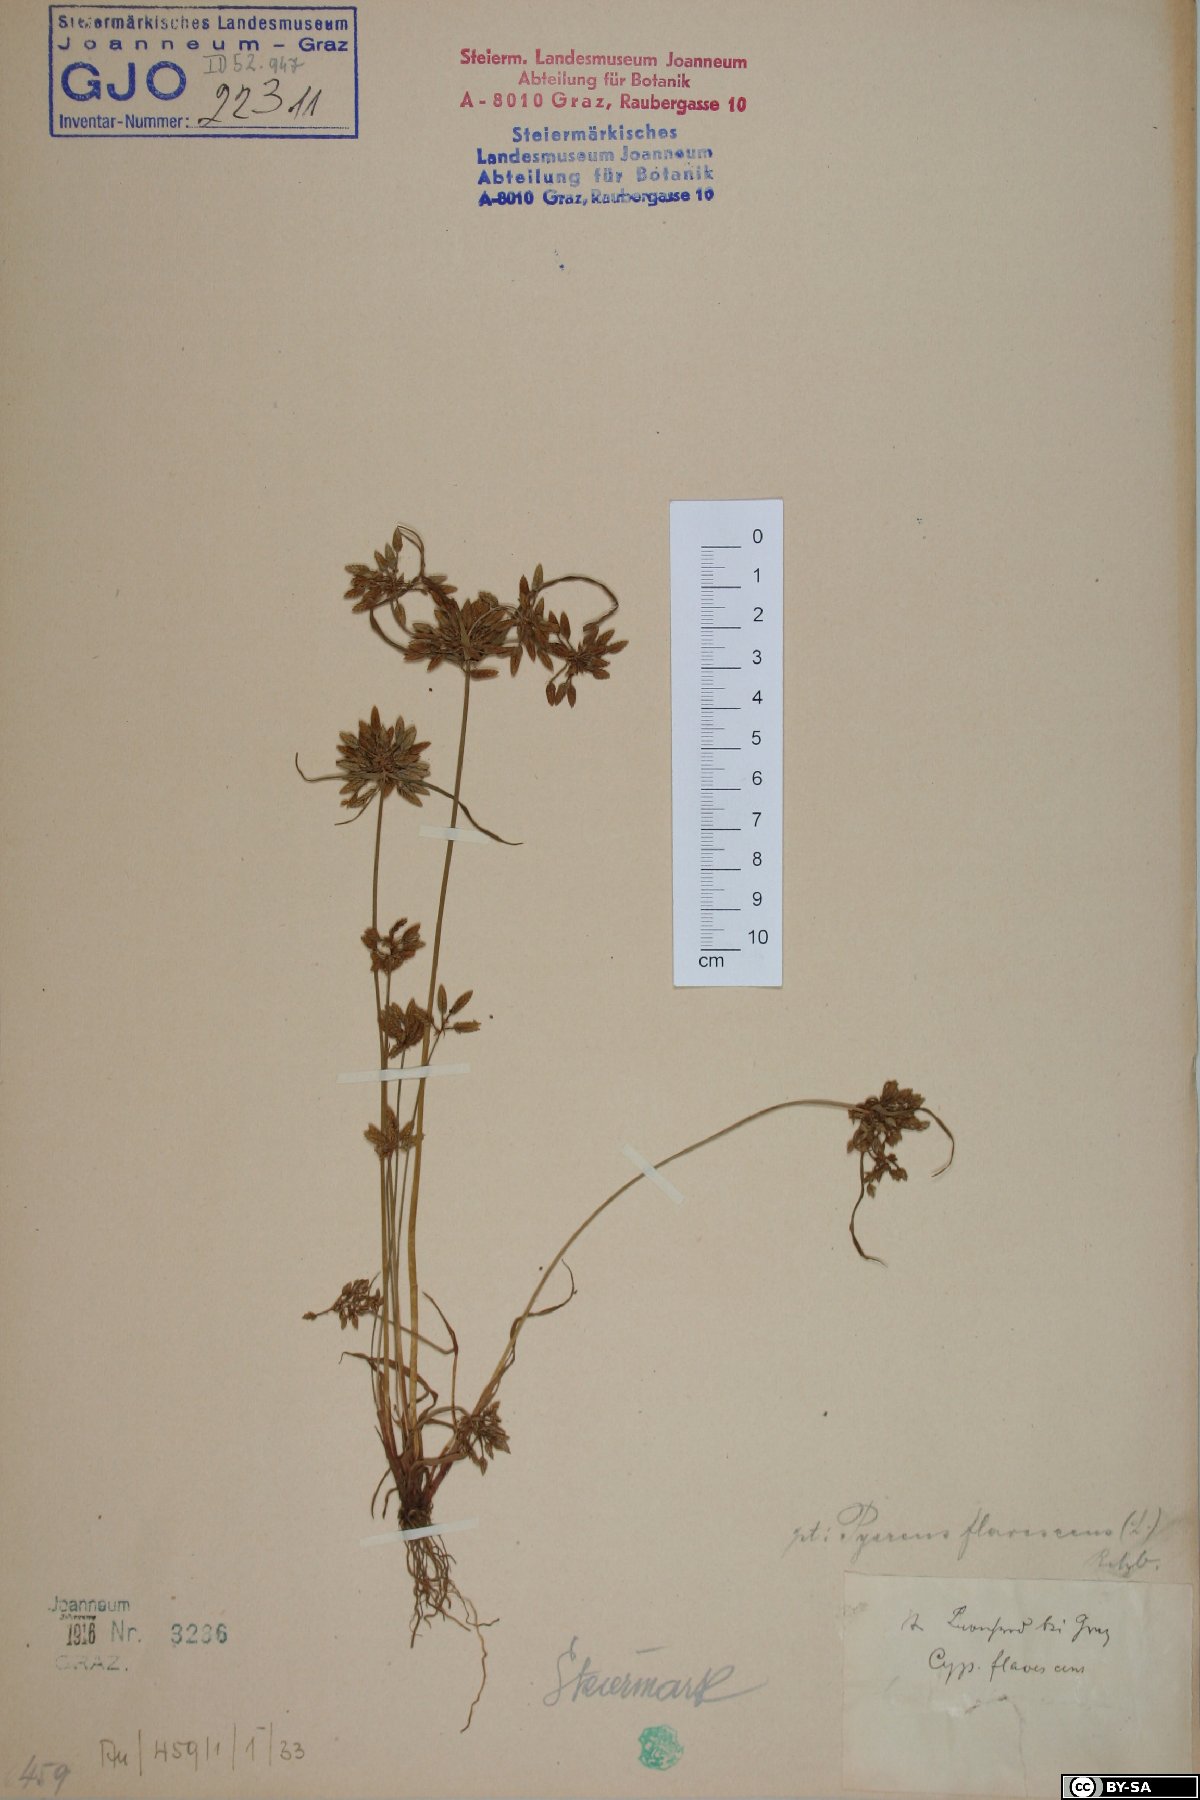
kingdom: Plantae
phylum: Tracheophyta
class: Liliopsida
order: Poales
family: Cyperaceae
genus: Cyperus
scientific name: Cyperus flavescens
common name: Yellow galingale
